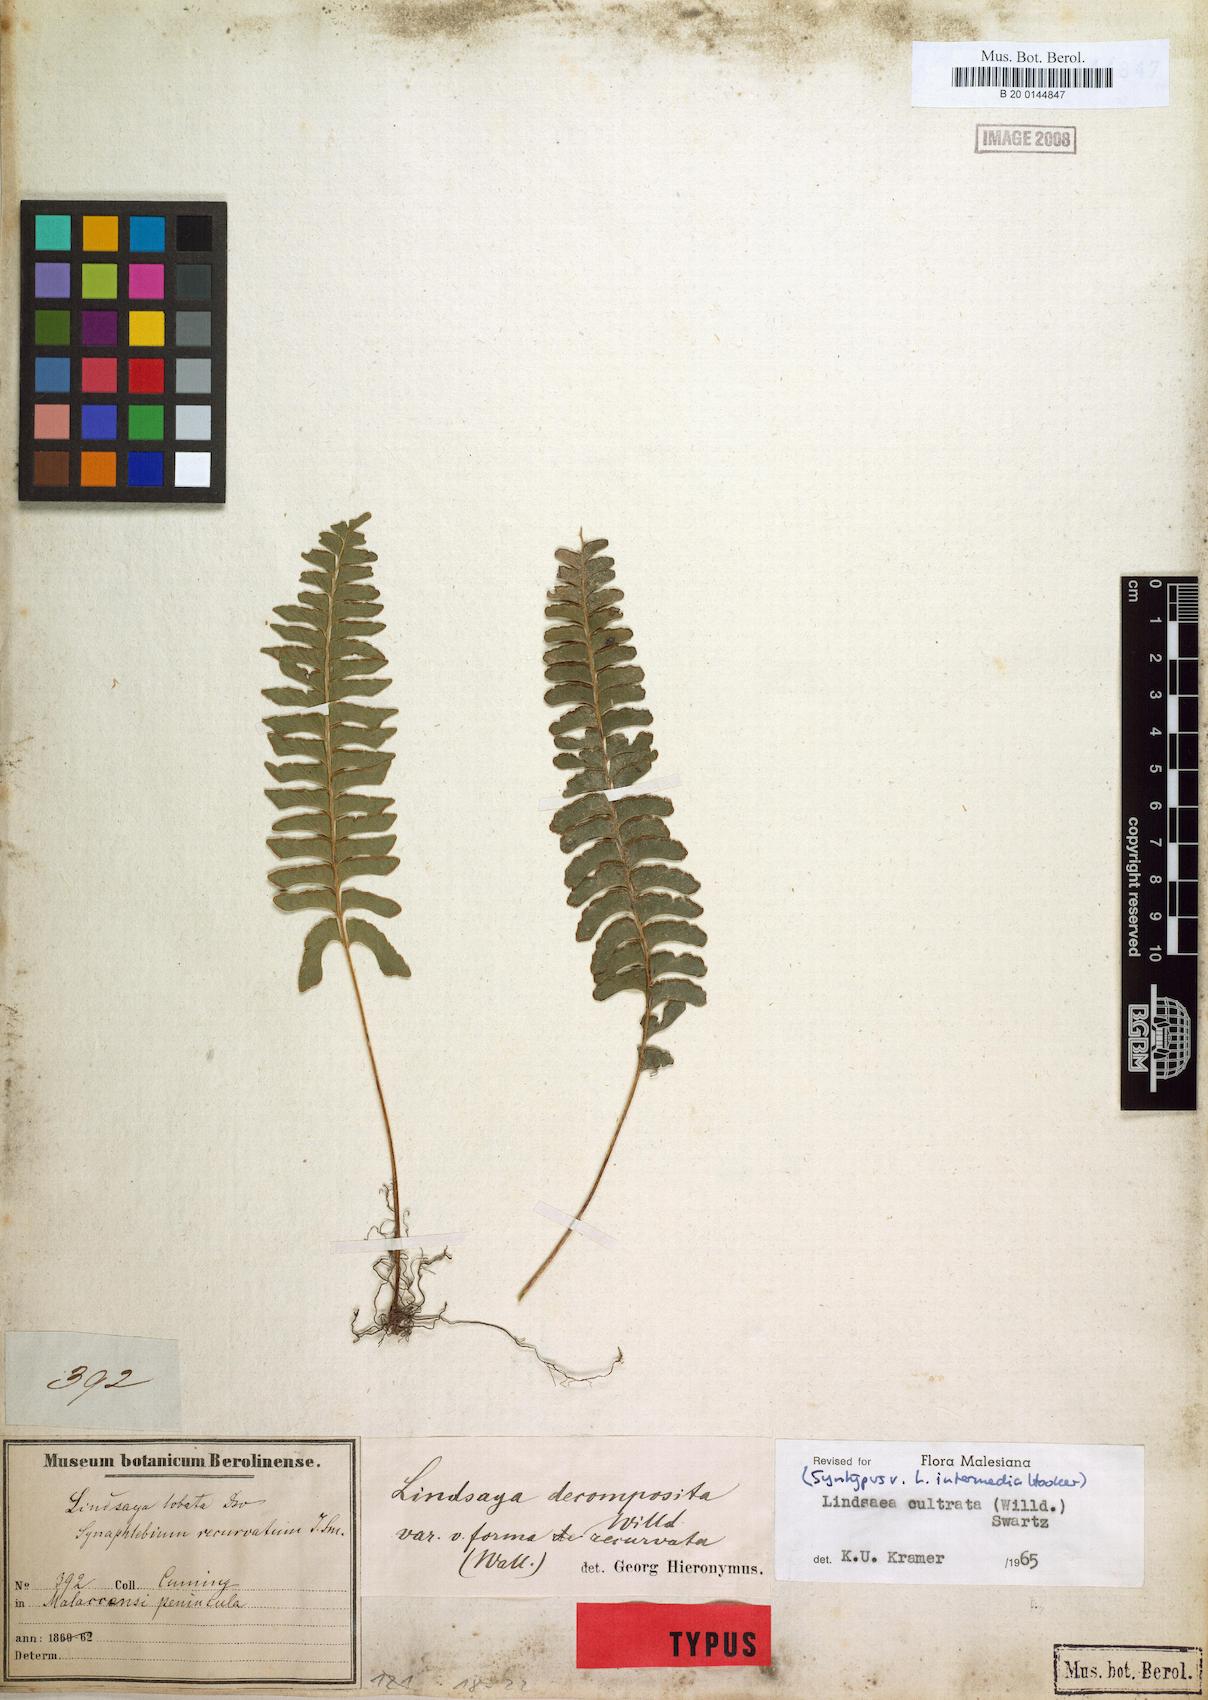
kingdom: Plantae
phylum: Tracheophyta
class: Polypodiopsida
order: Polypodiales
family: Lindsaeaceae
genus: Lindsaea
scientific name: Lindsaea cultrata
